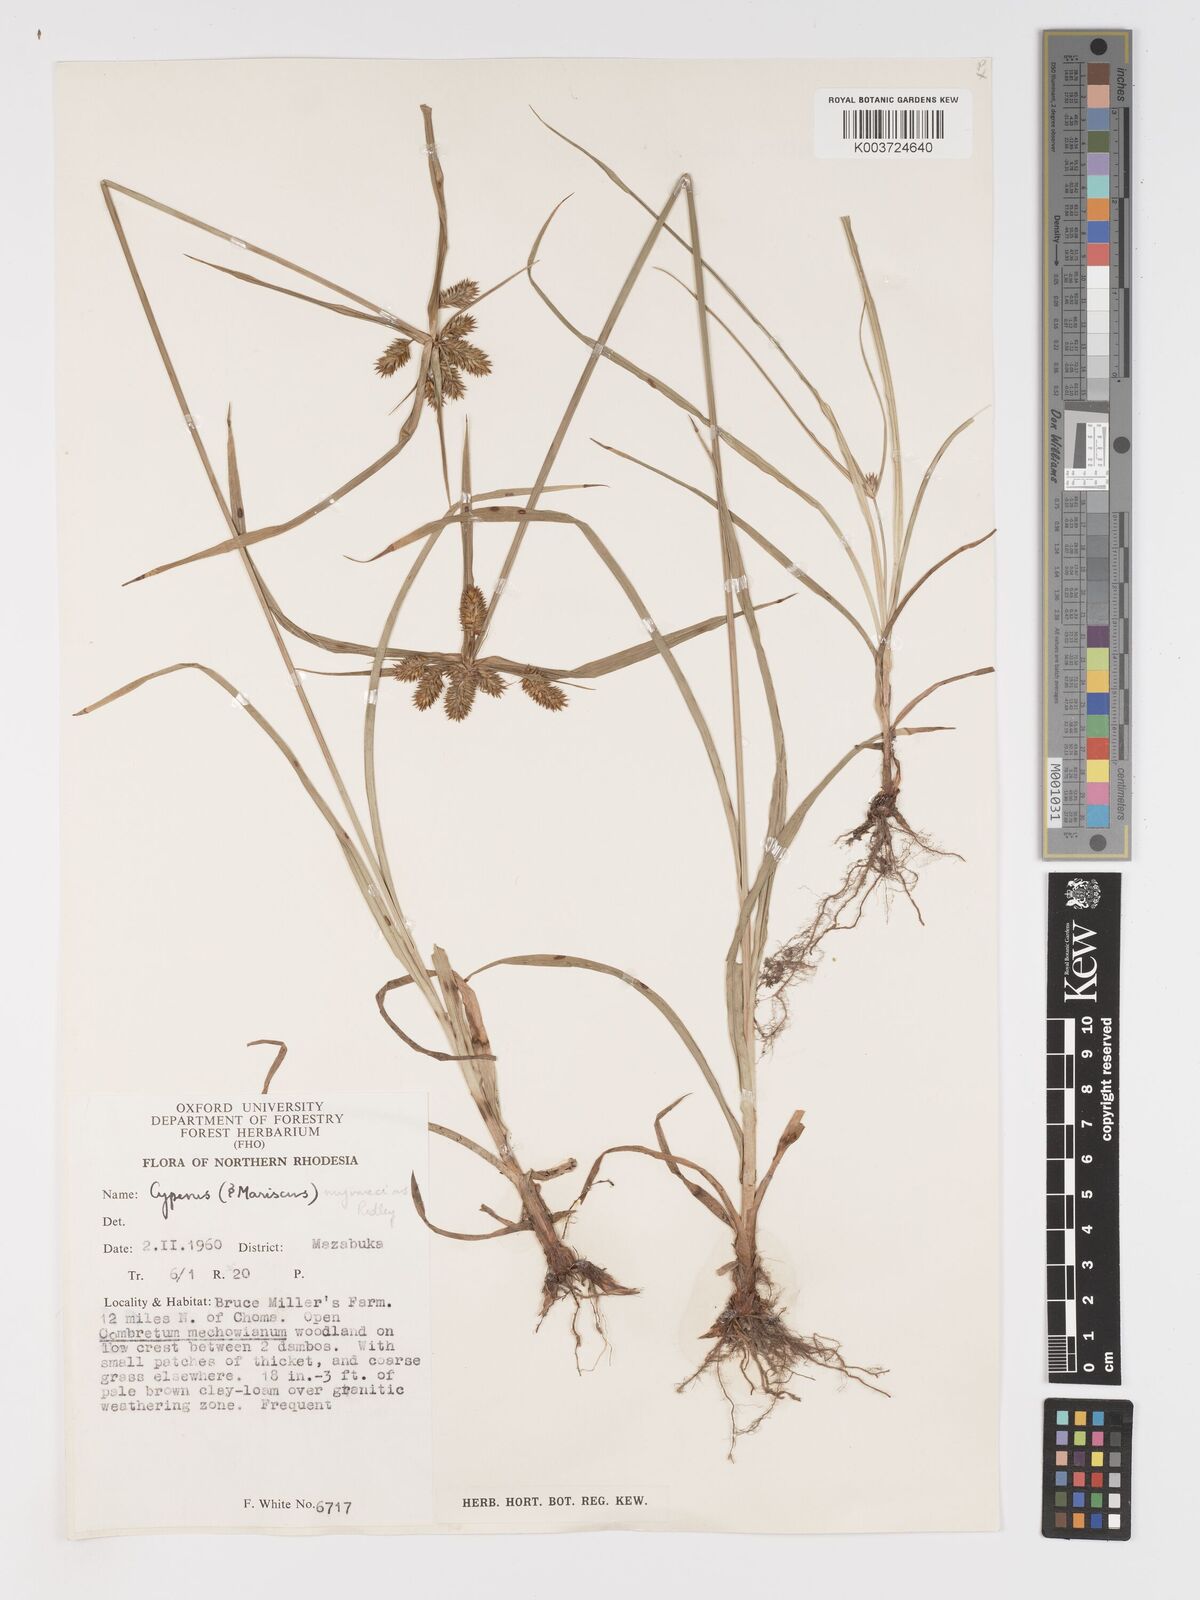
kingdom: Plantae
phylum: Tracheophyta
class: Liliopsida
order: Poales
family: Cyperaceae
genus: Cyperus
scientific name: Cyperus myrmecias
